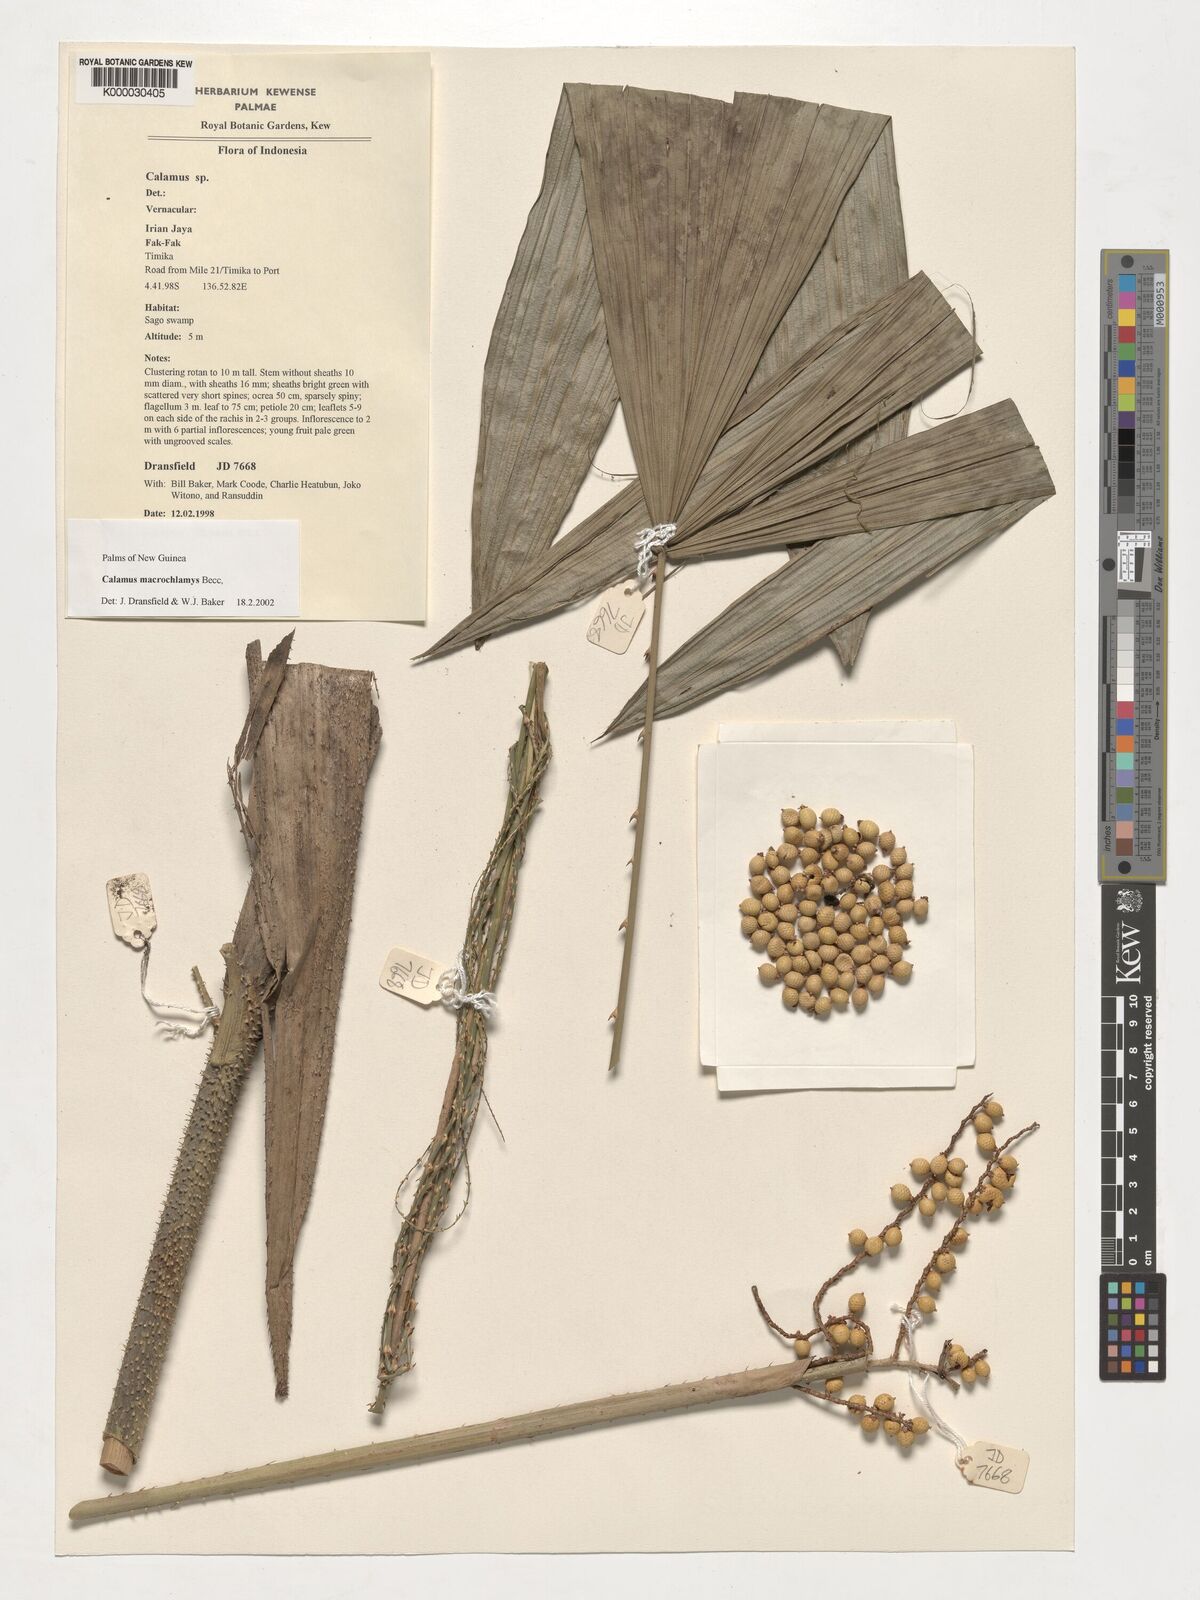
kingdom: Plantae
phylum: Tracheophyta
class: Liliopsida
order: Arecales
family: Arecaceae
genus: Calamus
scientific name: Calamus macrochlamys
